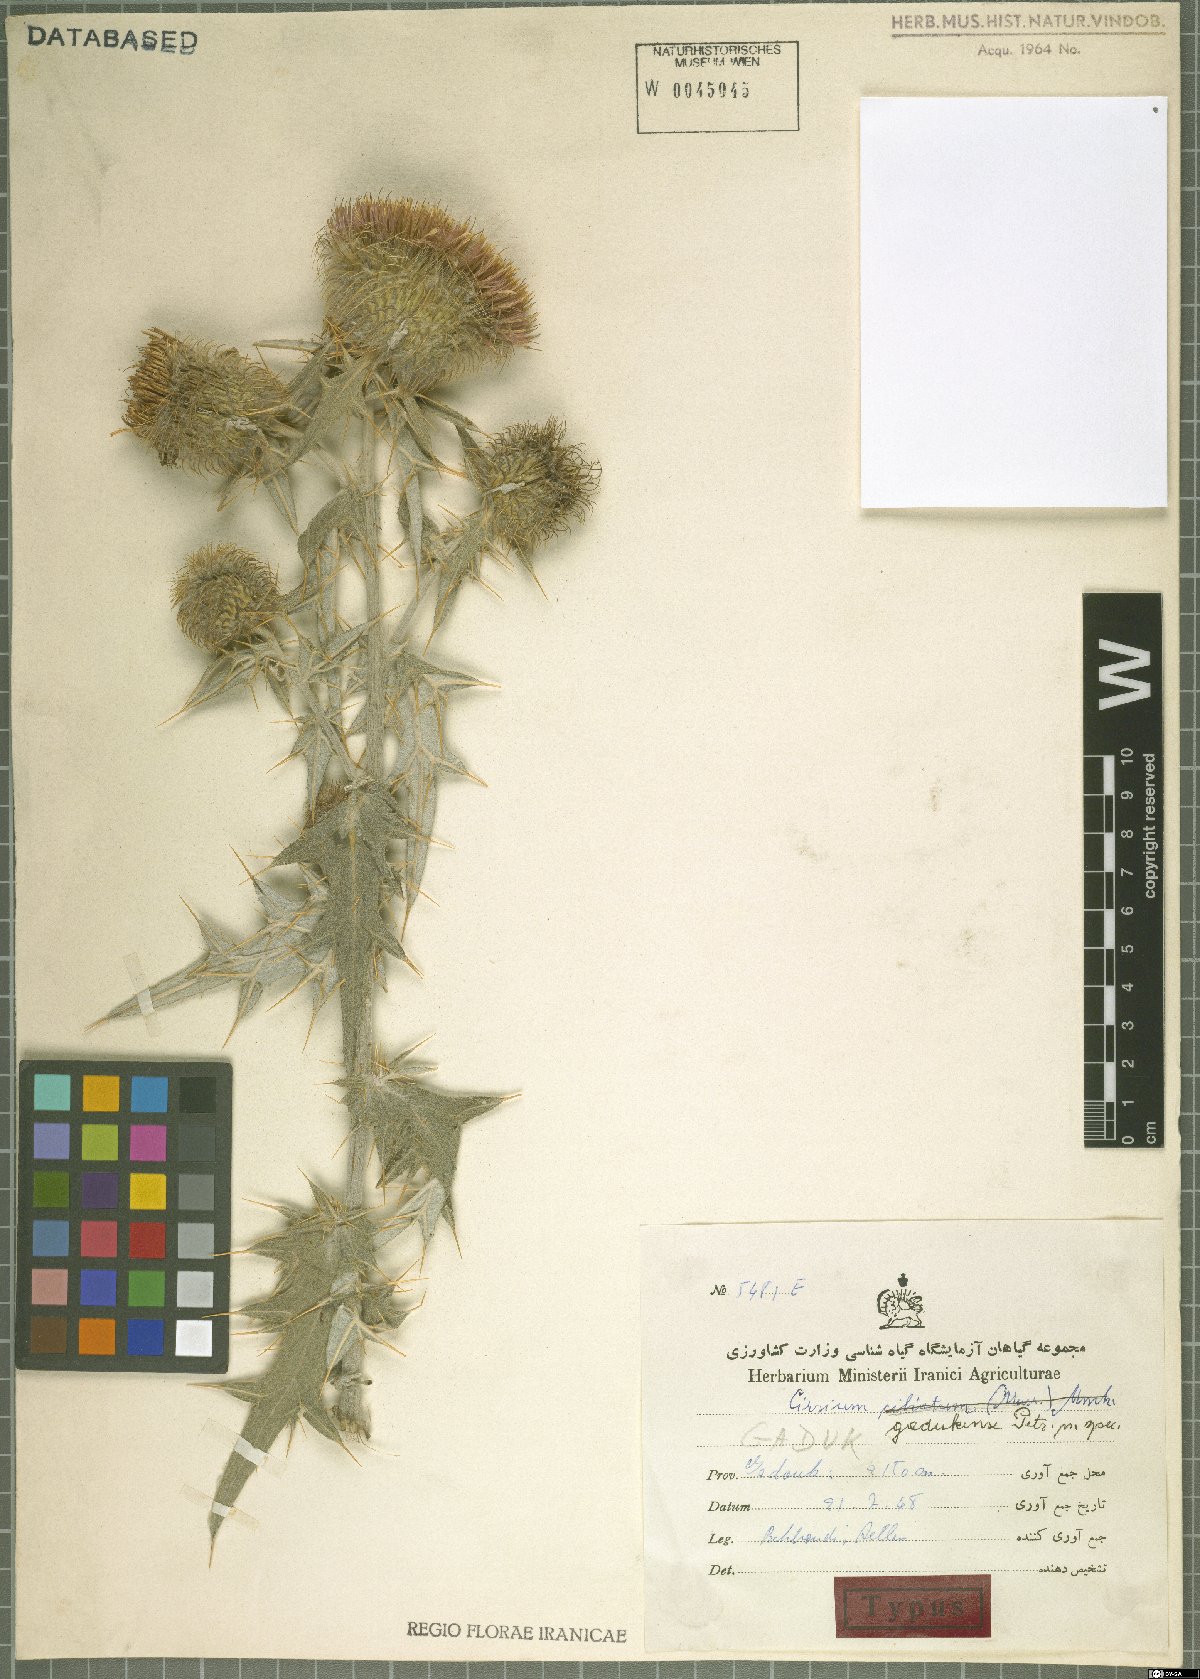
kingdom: Plantae
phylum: Tracheophyta
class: Magnoliopsida
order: Asterales
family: Asteraceae
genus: Lophiolepis
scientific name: Lophiolepis gadukensis
